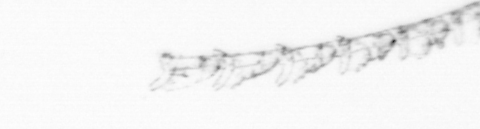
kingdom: Animalia
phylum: Cnidaria
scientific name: Cnidaria
